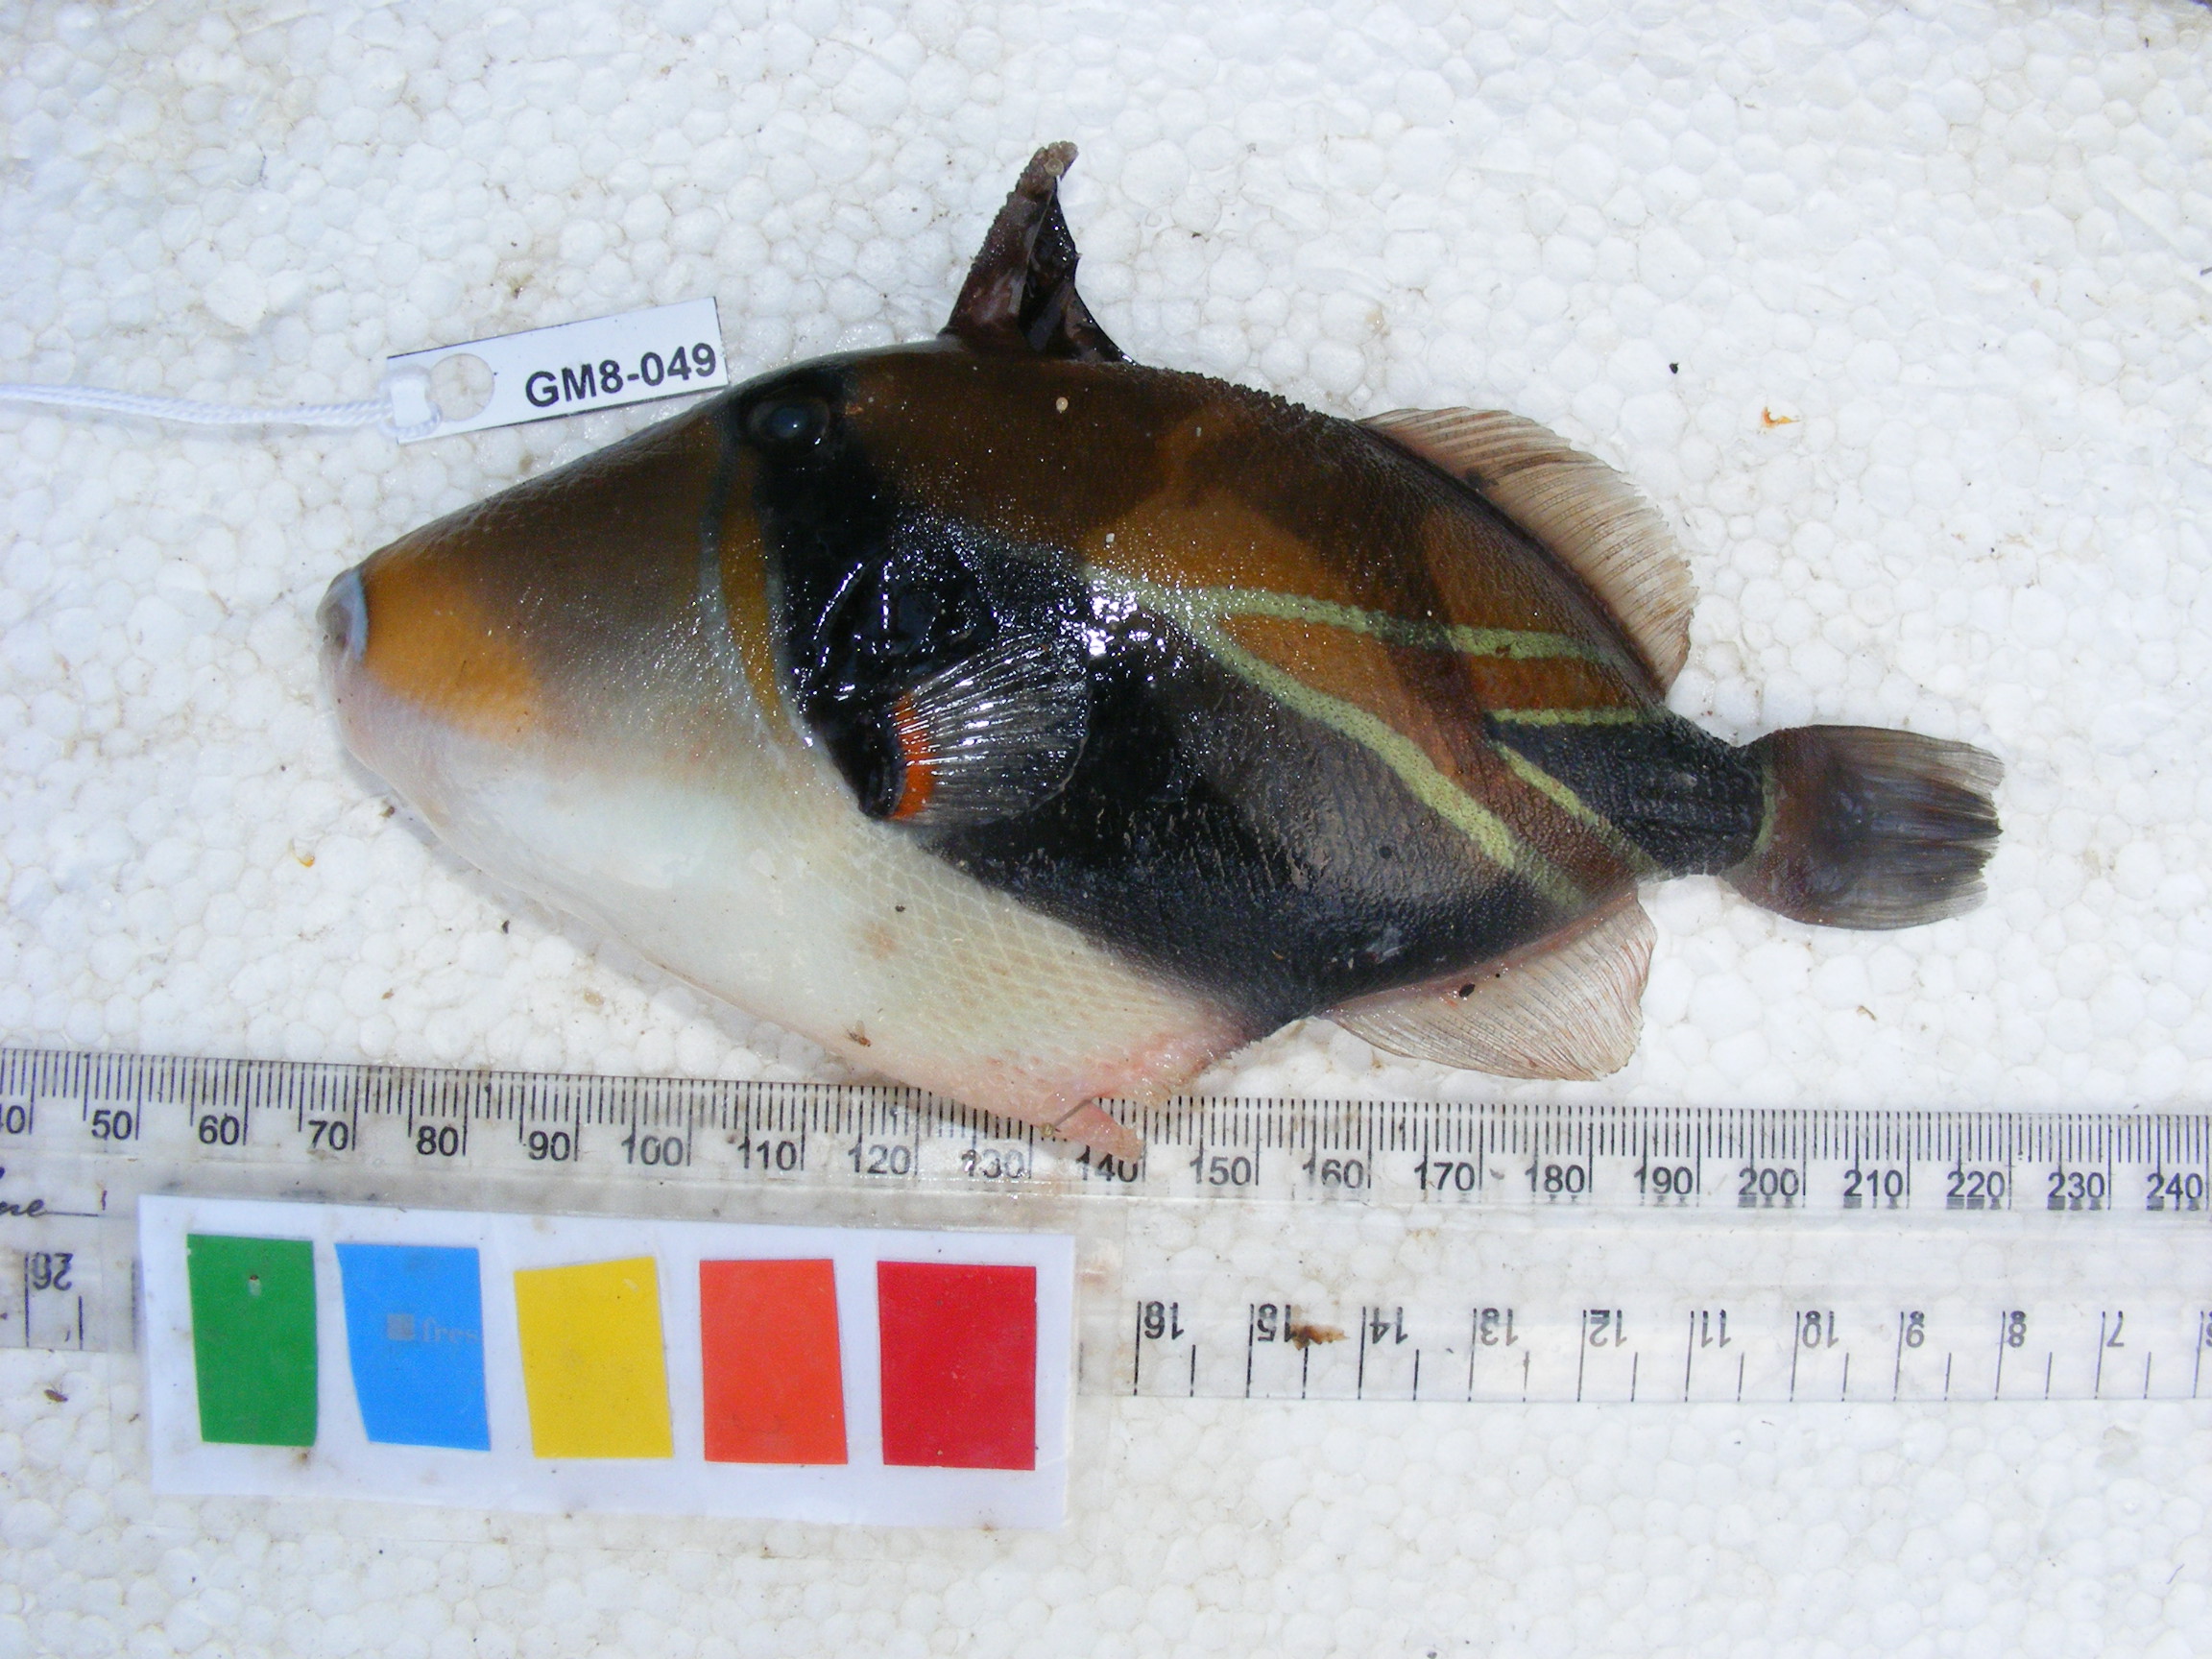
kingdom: Animalia
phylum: Chordata
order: Tetraodontiformes
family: Balistidae
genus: Rhinecanthus
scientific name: Rhinecanthus rectangulus
